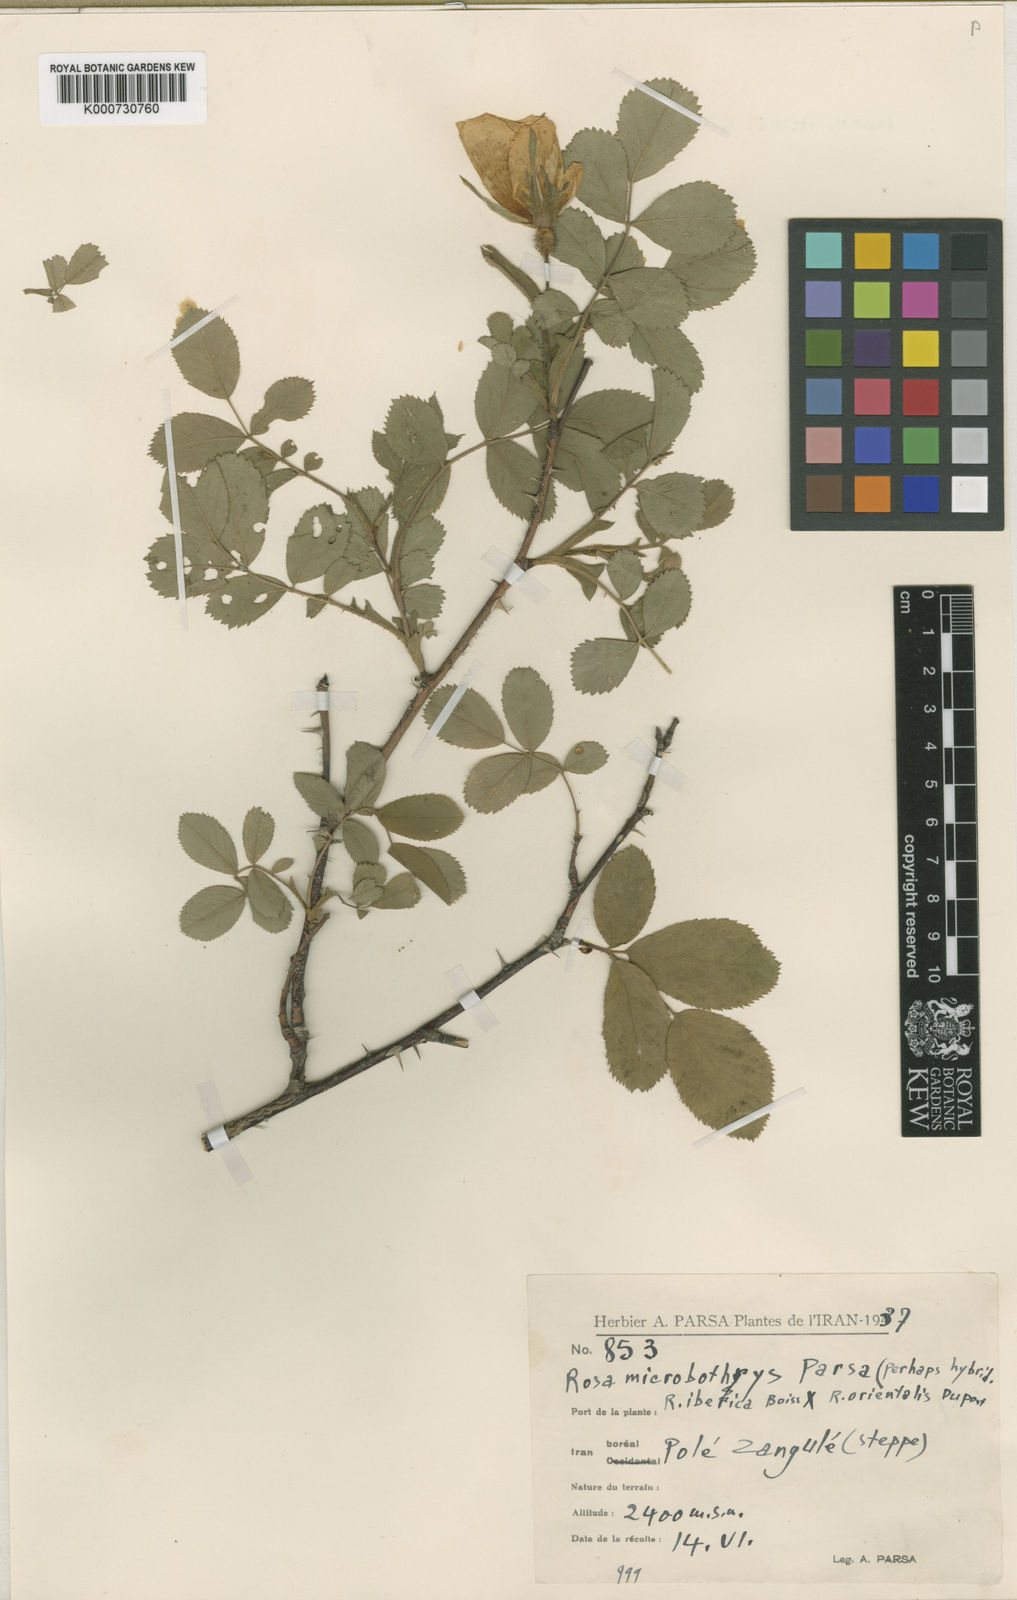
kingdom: Plantae
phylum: Tracheophyta
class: Magnoliopsida
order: Rosales
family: Rosaceae
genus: Rosa
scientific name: Rosa
